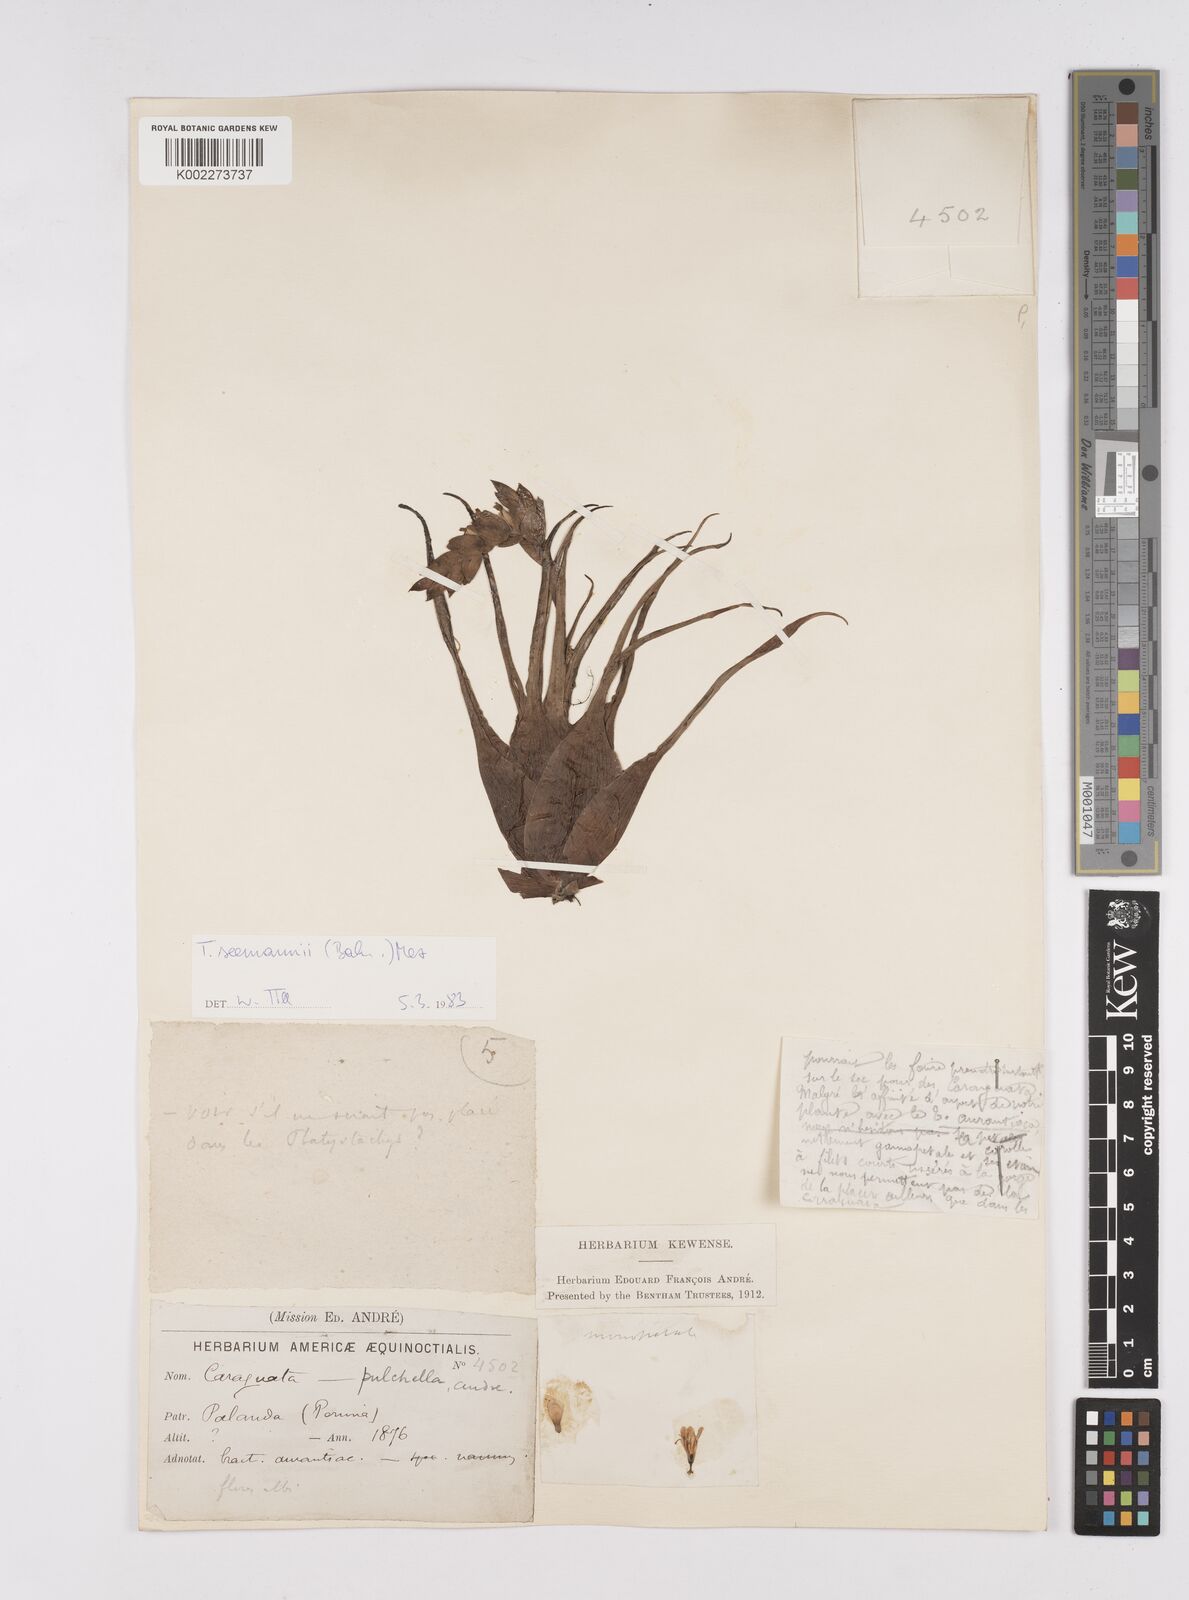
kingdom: Plantae
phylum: Tracheophyta
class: Liliopsida
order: Poales
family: Bromeliaceae
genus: Racinaea
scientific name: Racinaea seemannii
